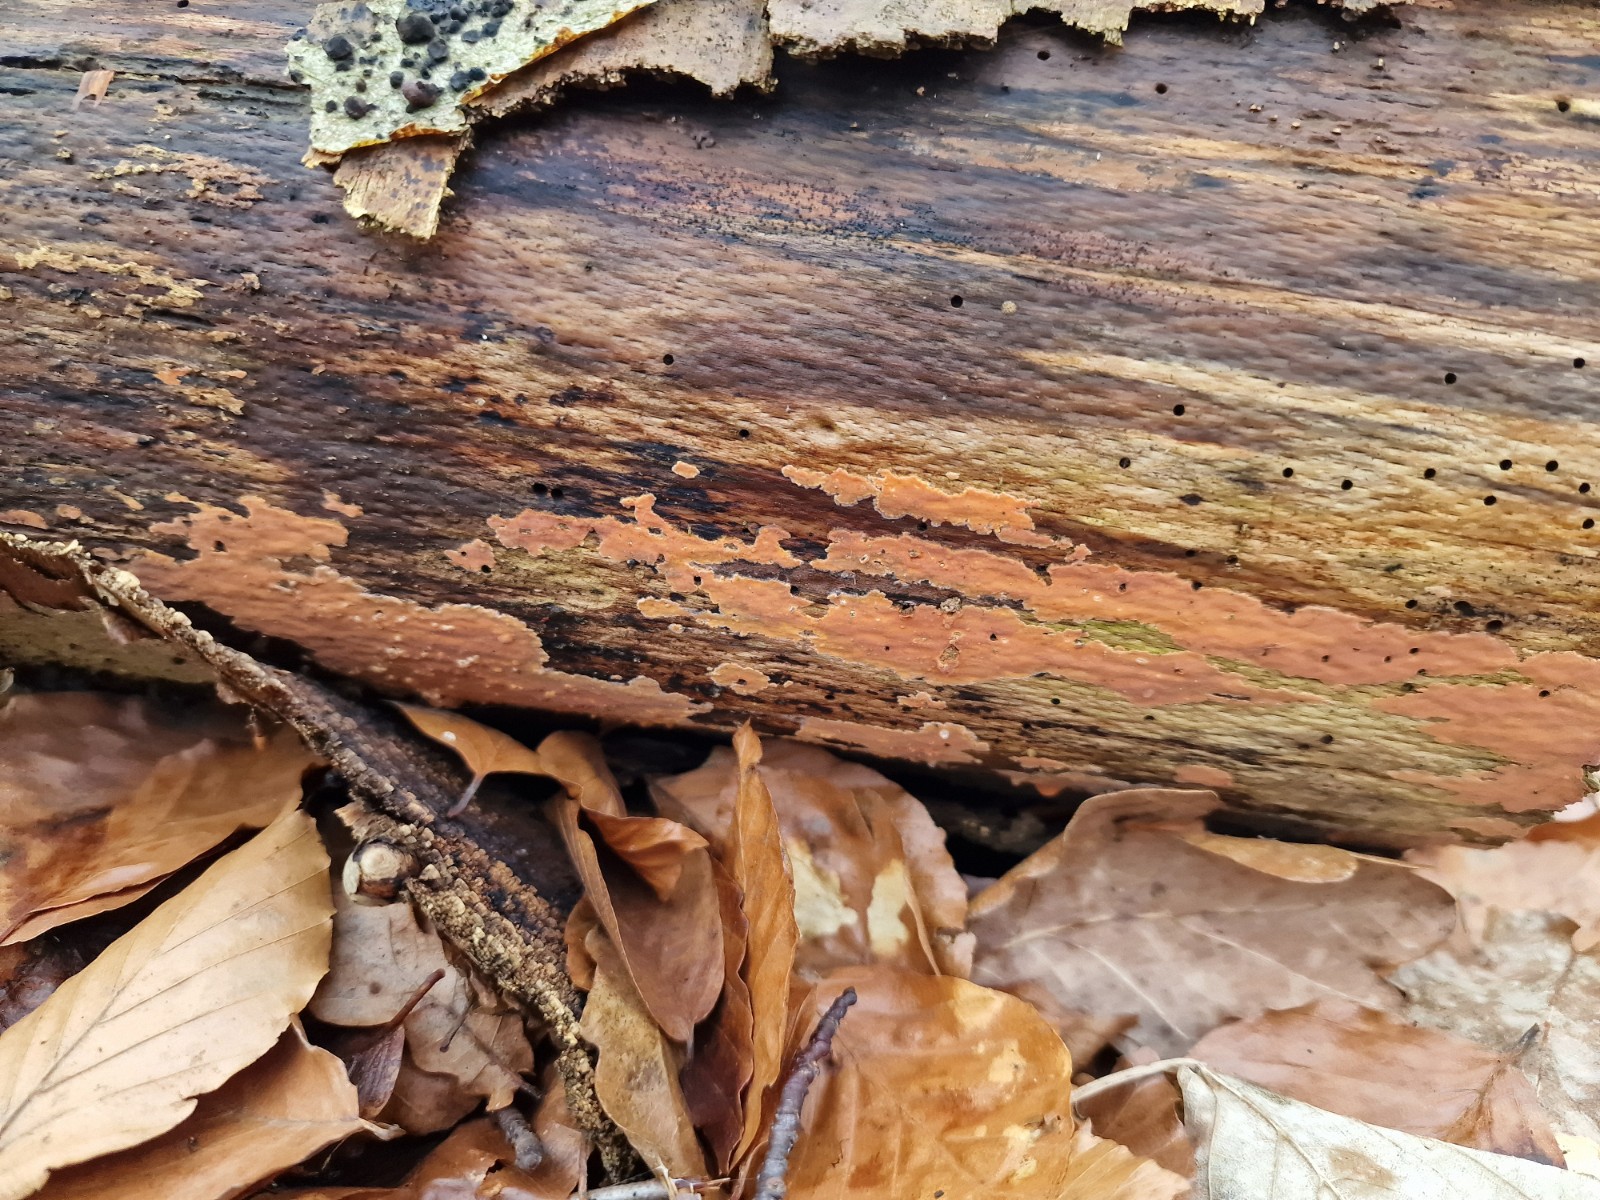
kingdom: Fungi
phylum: Basidiomycota
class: Agaricomycetes
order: Russulales
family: Peniophoraceae
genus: Peniophora
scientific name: Peniophora incarnata
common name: laksefarvet voksskind
